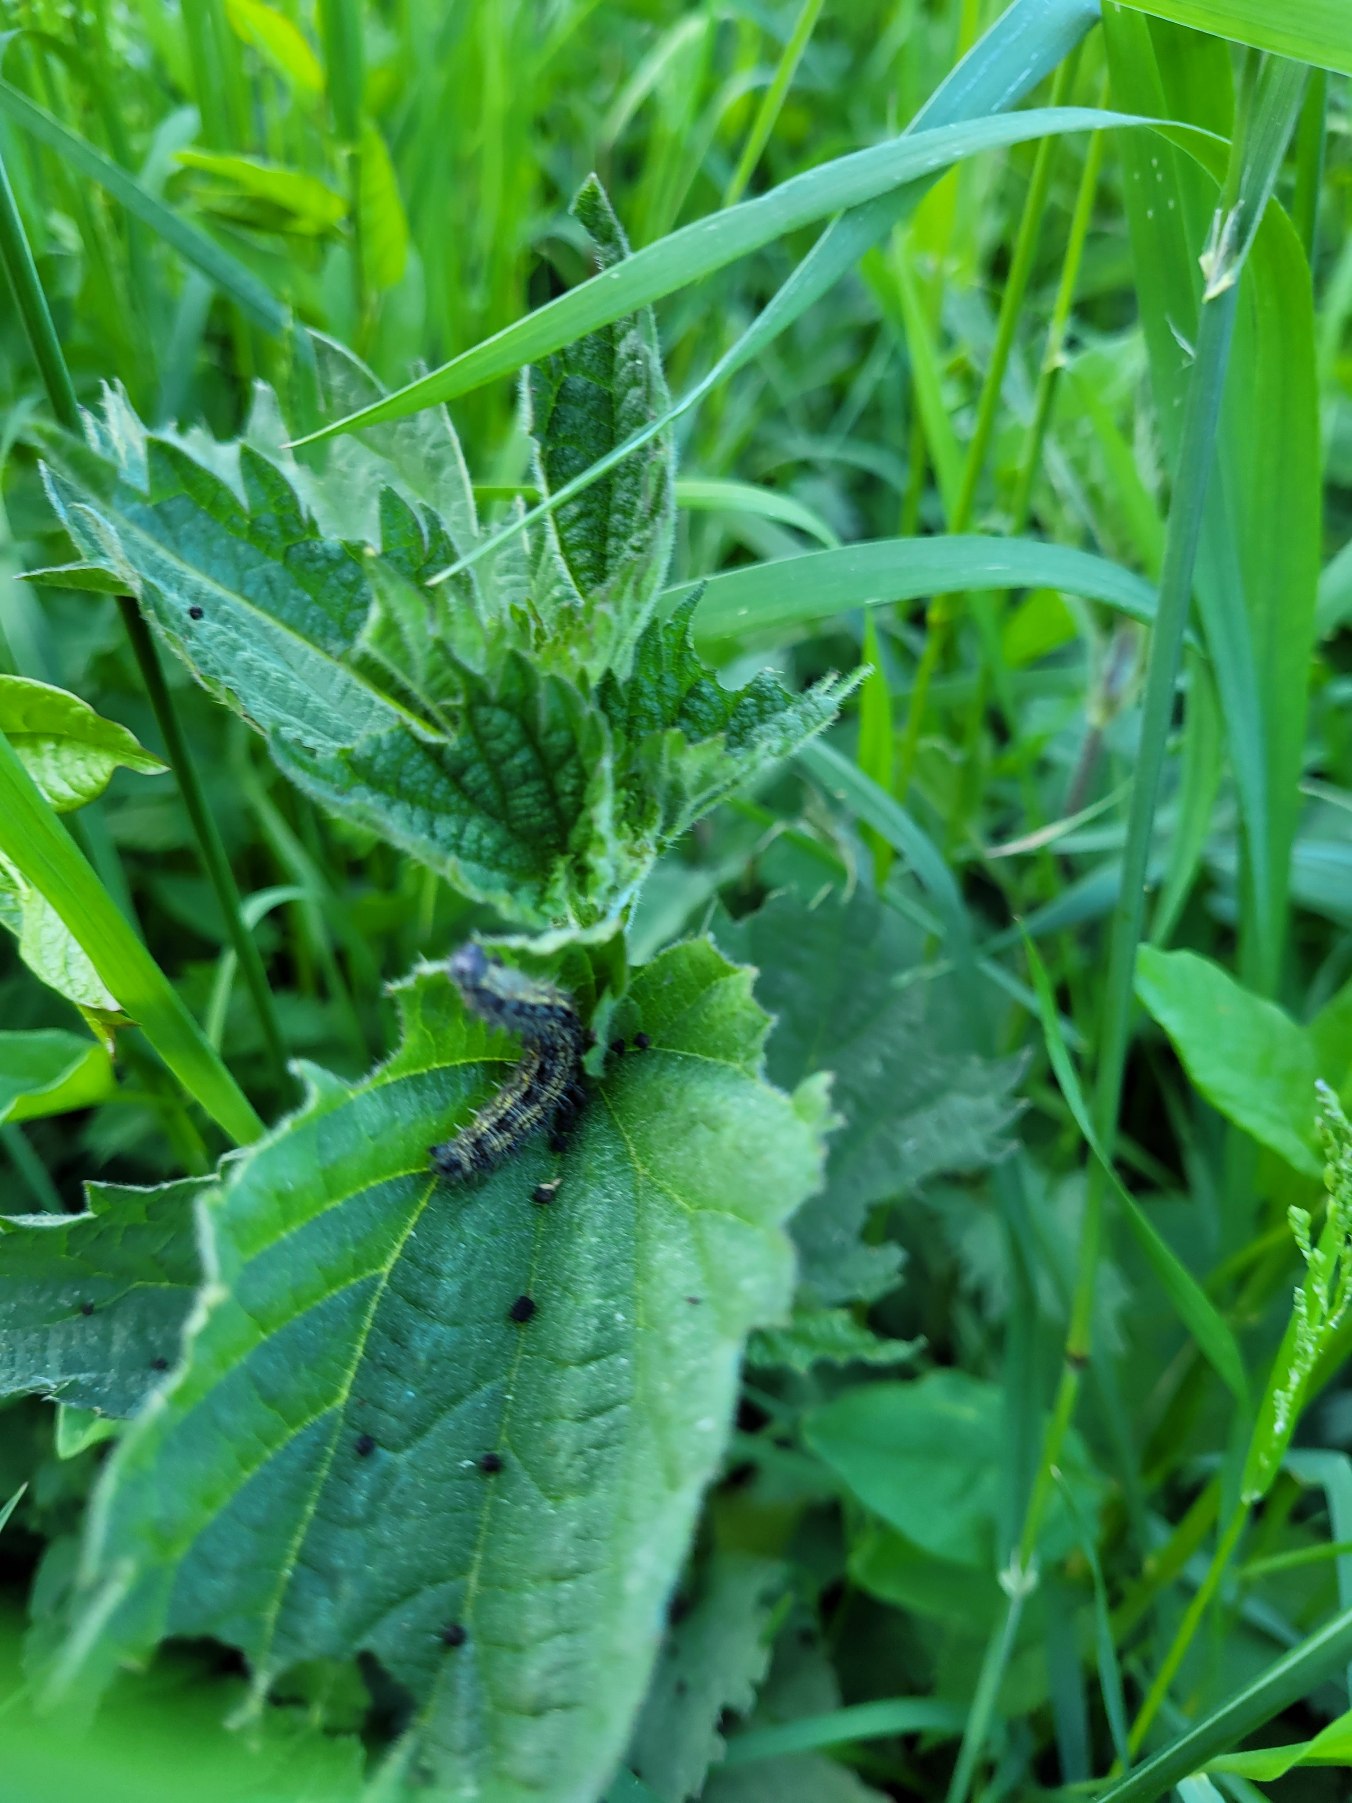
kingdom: Animalia
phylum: Arthropoda
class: Insecta
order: Lepidoptera
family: Nymphalidae
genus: Aglais
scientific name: Aglais urticae
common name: Nældens takvinge
